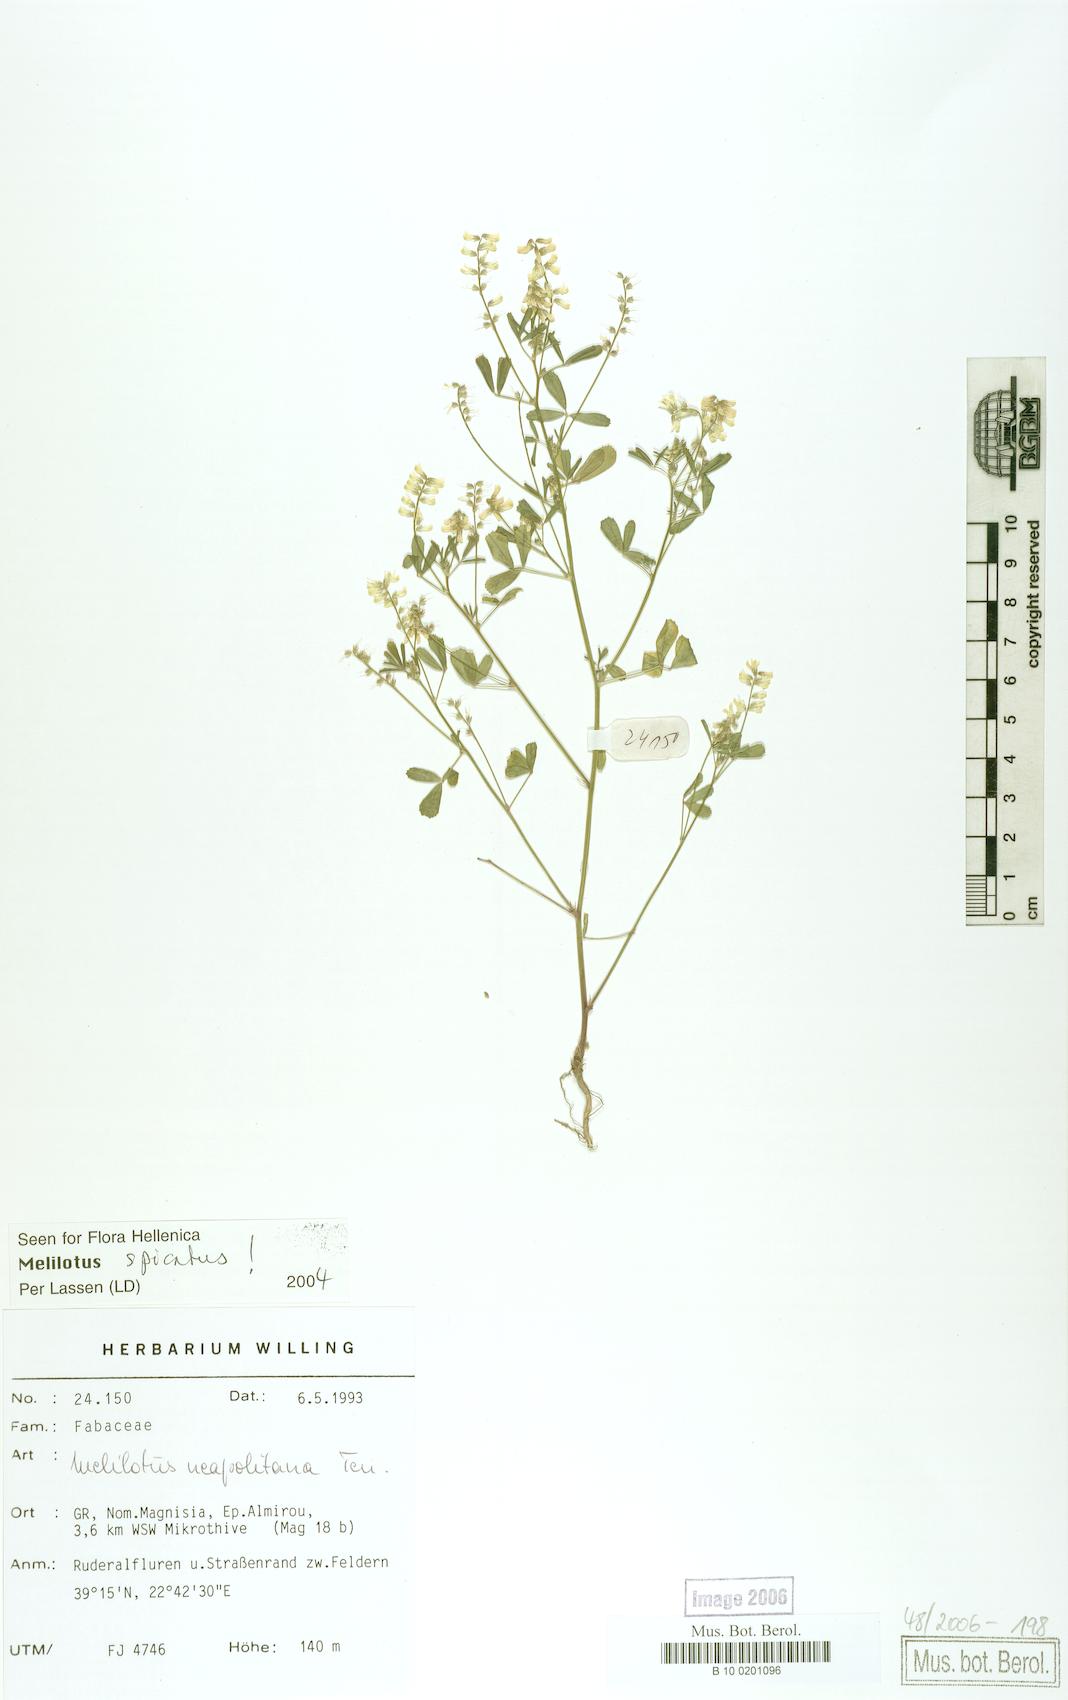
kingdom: Plantae
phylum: Tracheophyta
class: Magnoliopsida
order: Fabales
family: Fabaceae
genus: Melilotus
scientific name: Melilotus neapolitanus
